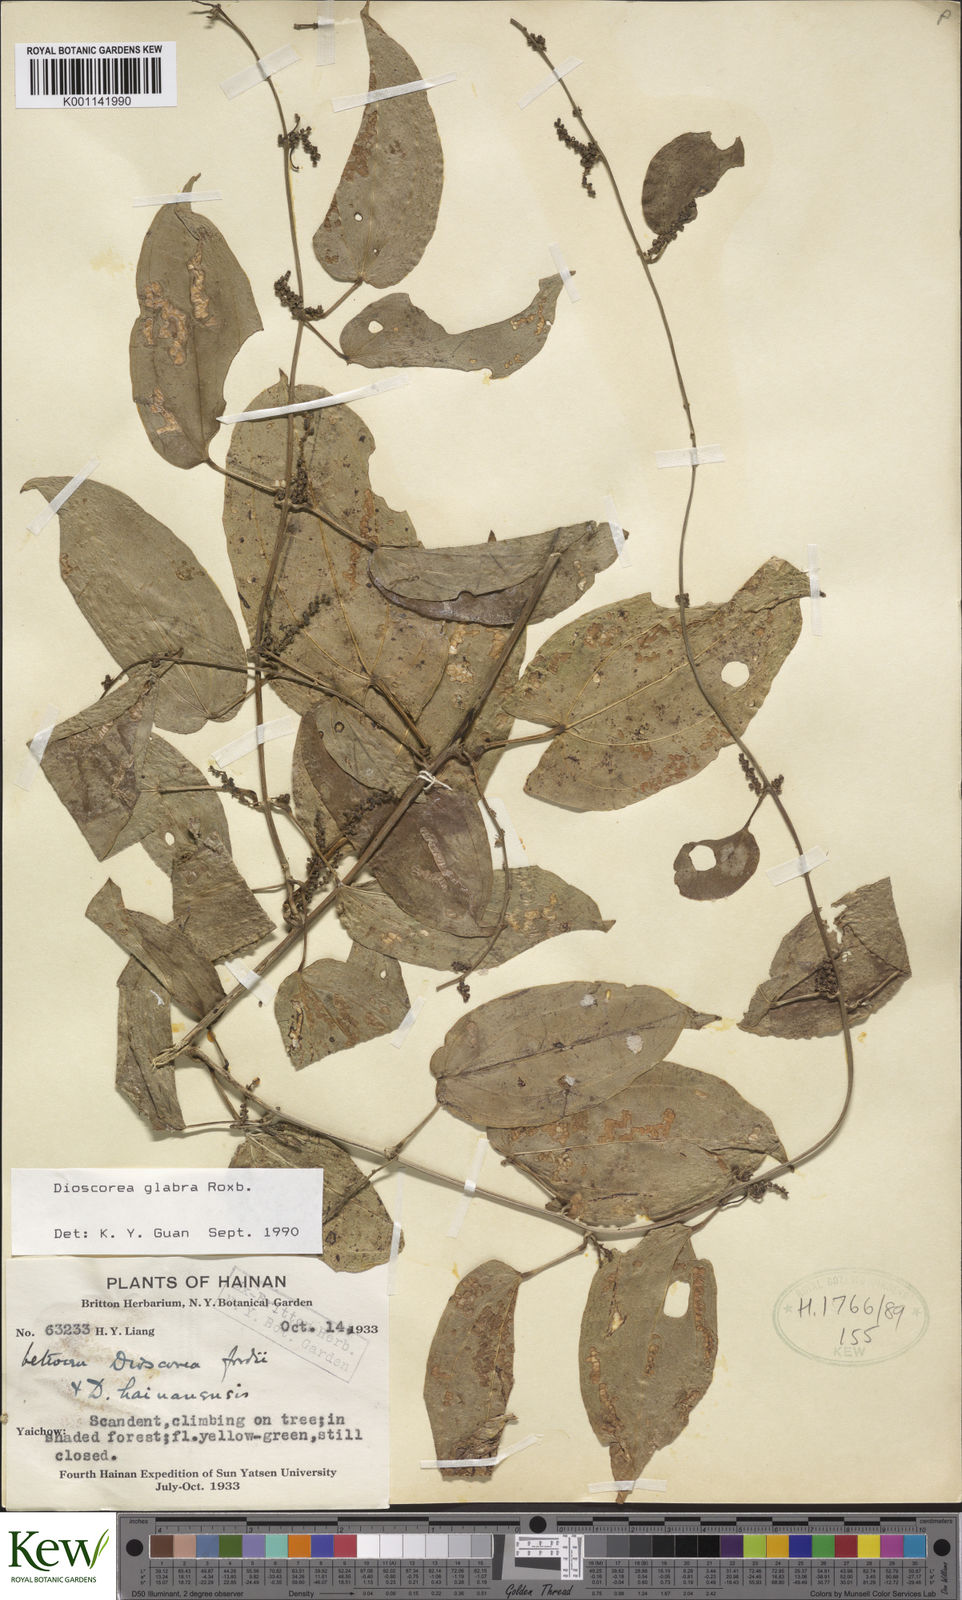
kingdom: Plantae
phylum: Tracheophyta
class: Liliopsida
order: Dioscoreales
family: Dioscoreaceae
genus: Dioscorea
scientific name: Dioscorea glabra
